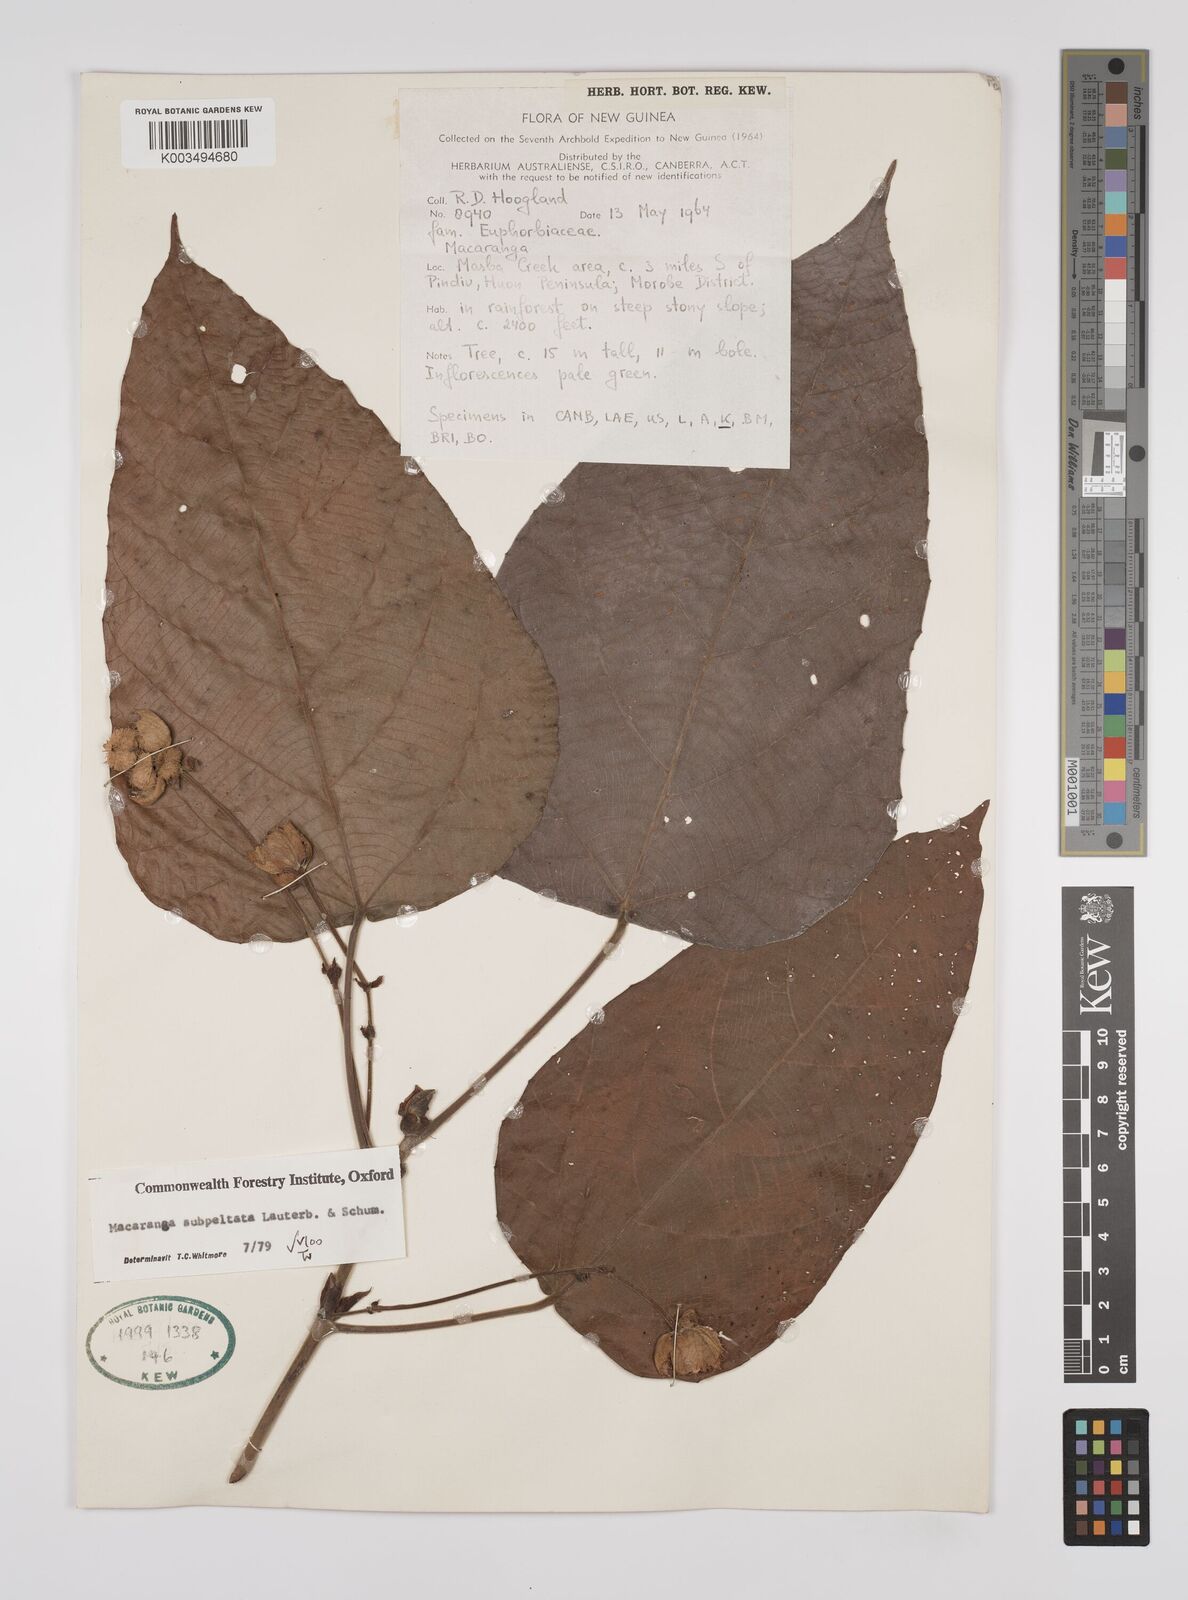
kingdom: Plantae
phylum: Tracheophyta
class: Magnoliopsida
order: Malpighiales
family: Euphorbiaceae
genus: Macaranga
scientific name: Macaranga subpeltata
